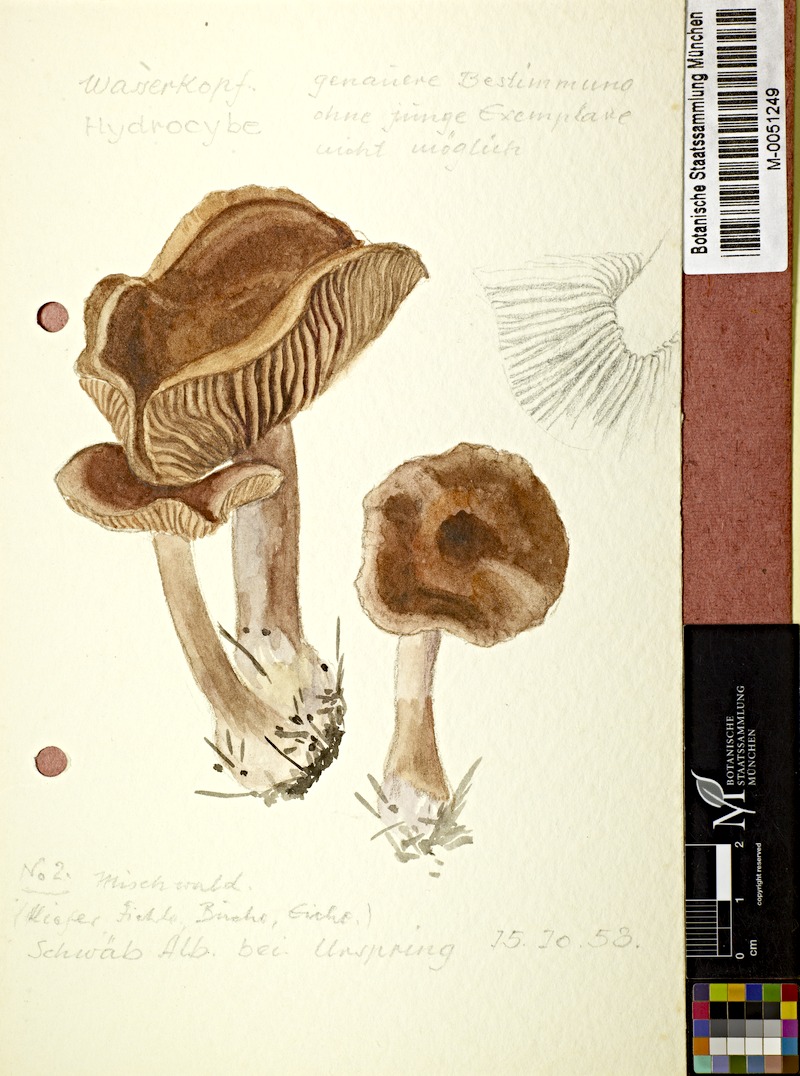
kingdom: Fungi
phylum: Basidiomycota
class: Agaricomycetes
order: Agaricales
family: Cortinariaceae
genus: Cortinarius
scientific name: Cortinarius
